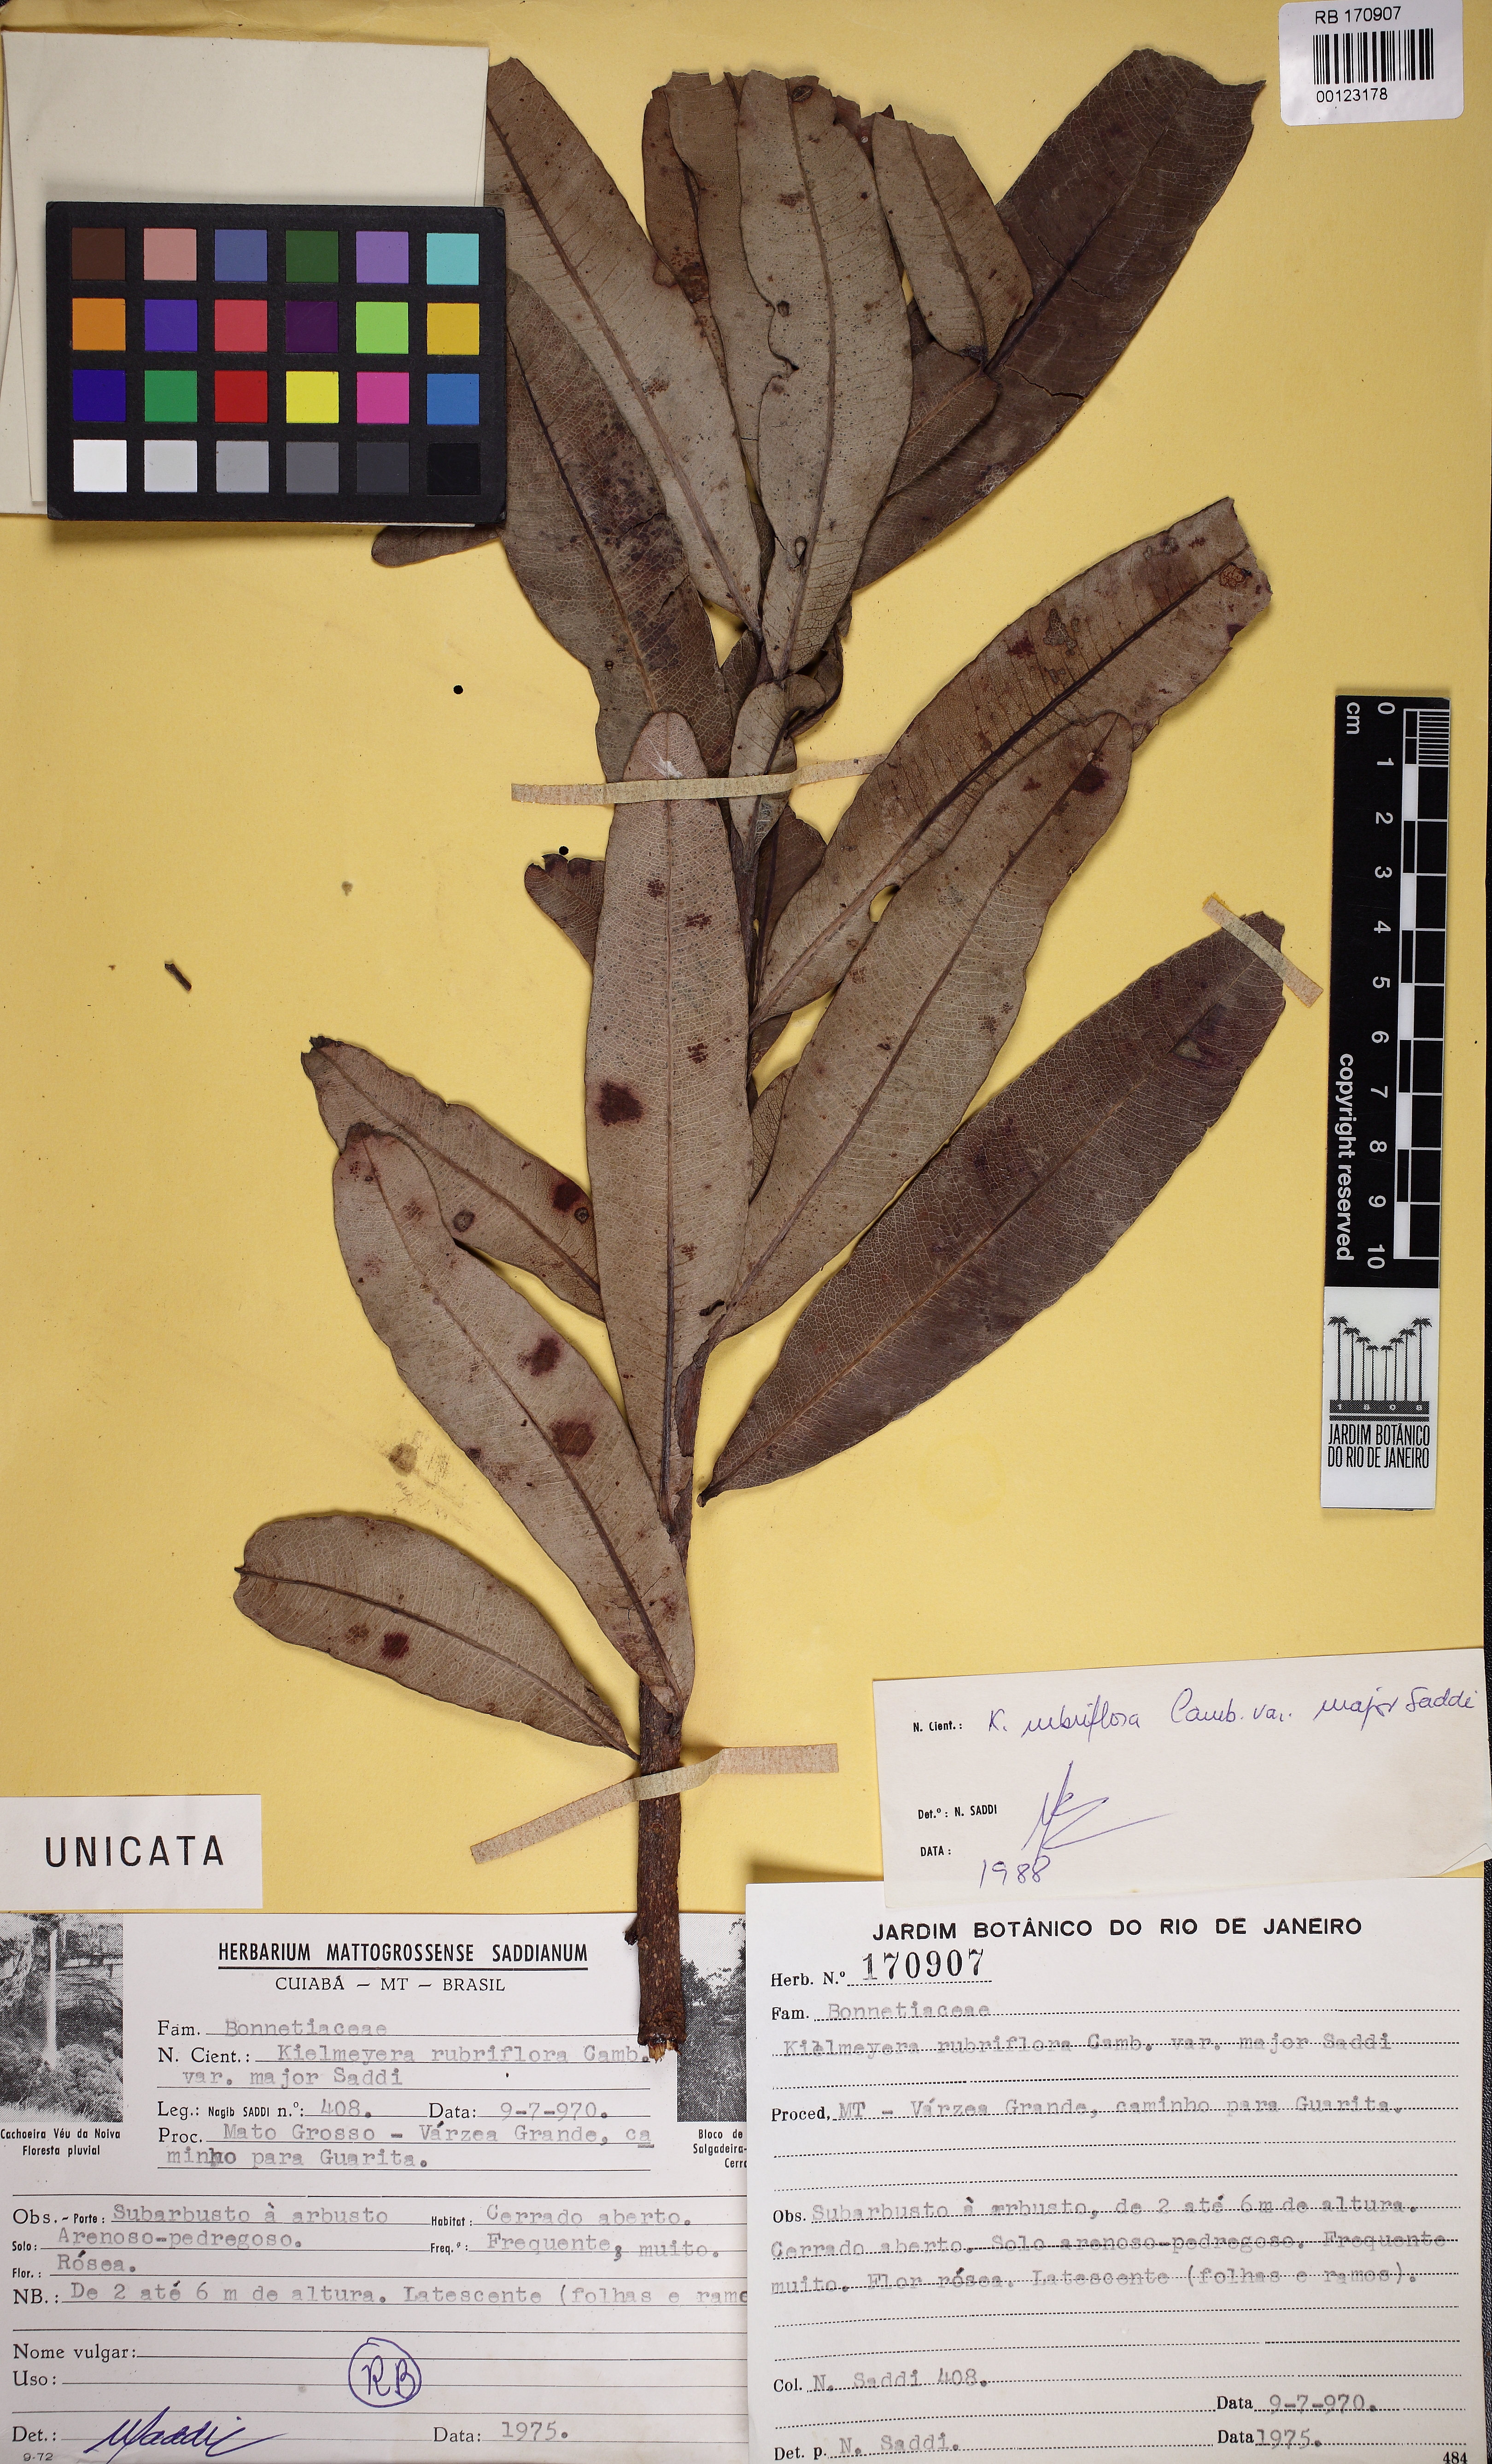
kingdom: Plantae
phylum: Tracheophyta
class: Magnoliopsida
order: Malpighiales
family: Calophyllaceae
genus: Kielmeyera
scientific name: Kielmeyera rubriflora
